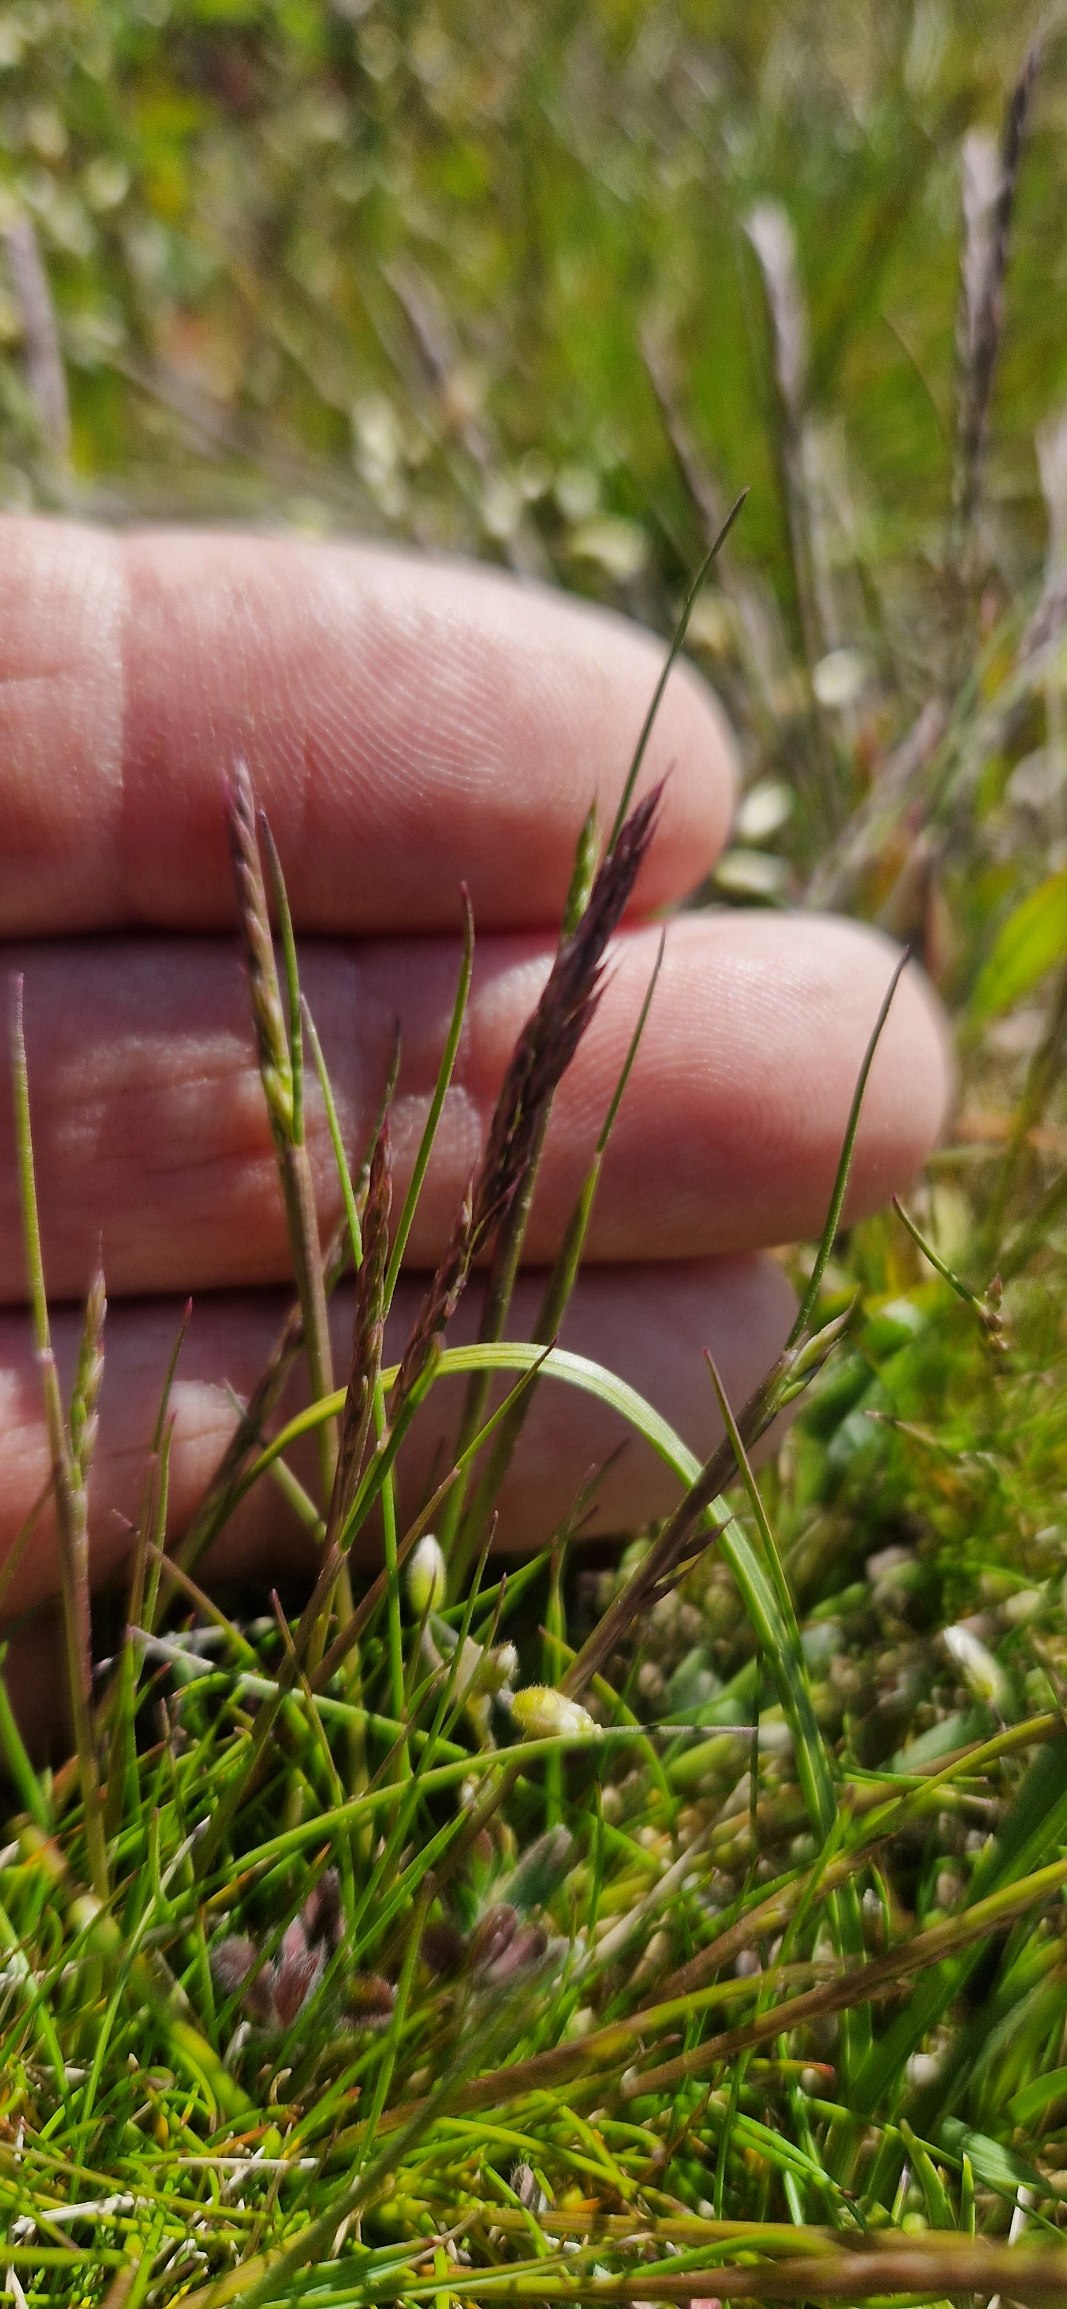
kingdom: Plantae
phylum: Tracheophyta
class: Liliopsida
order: Poales
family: Poaceae
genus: Festuca
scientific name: Festuca ovina
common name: Fåre-svingel
